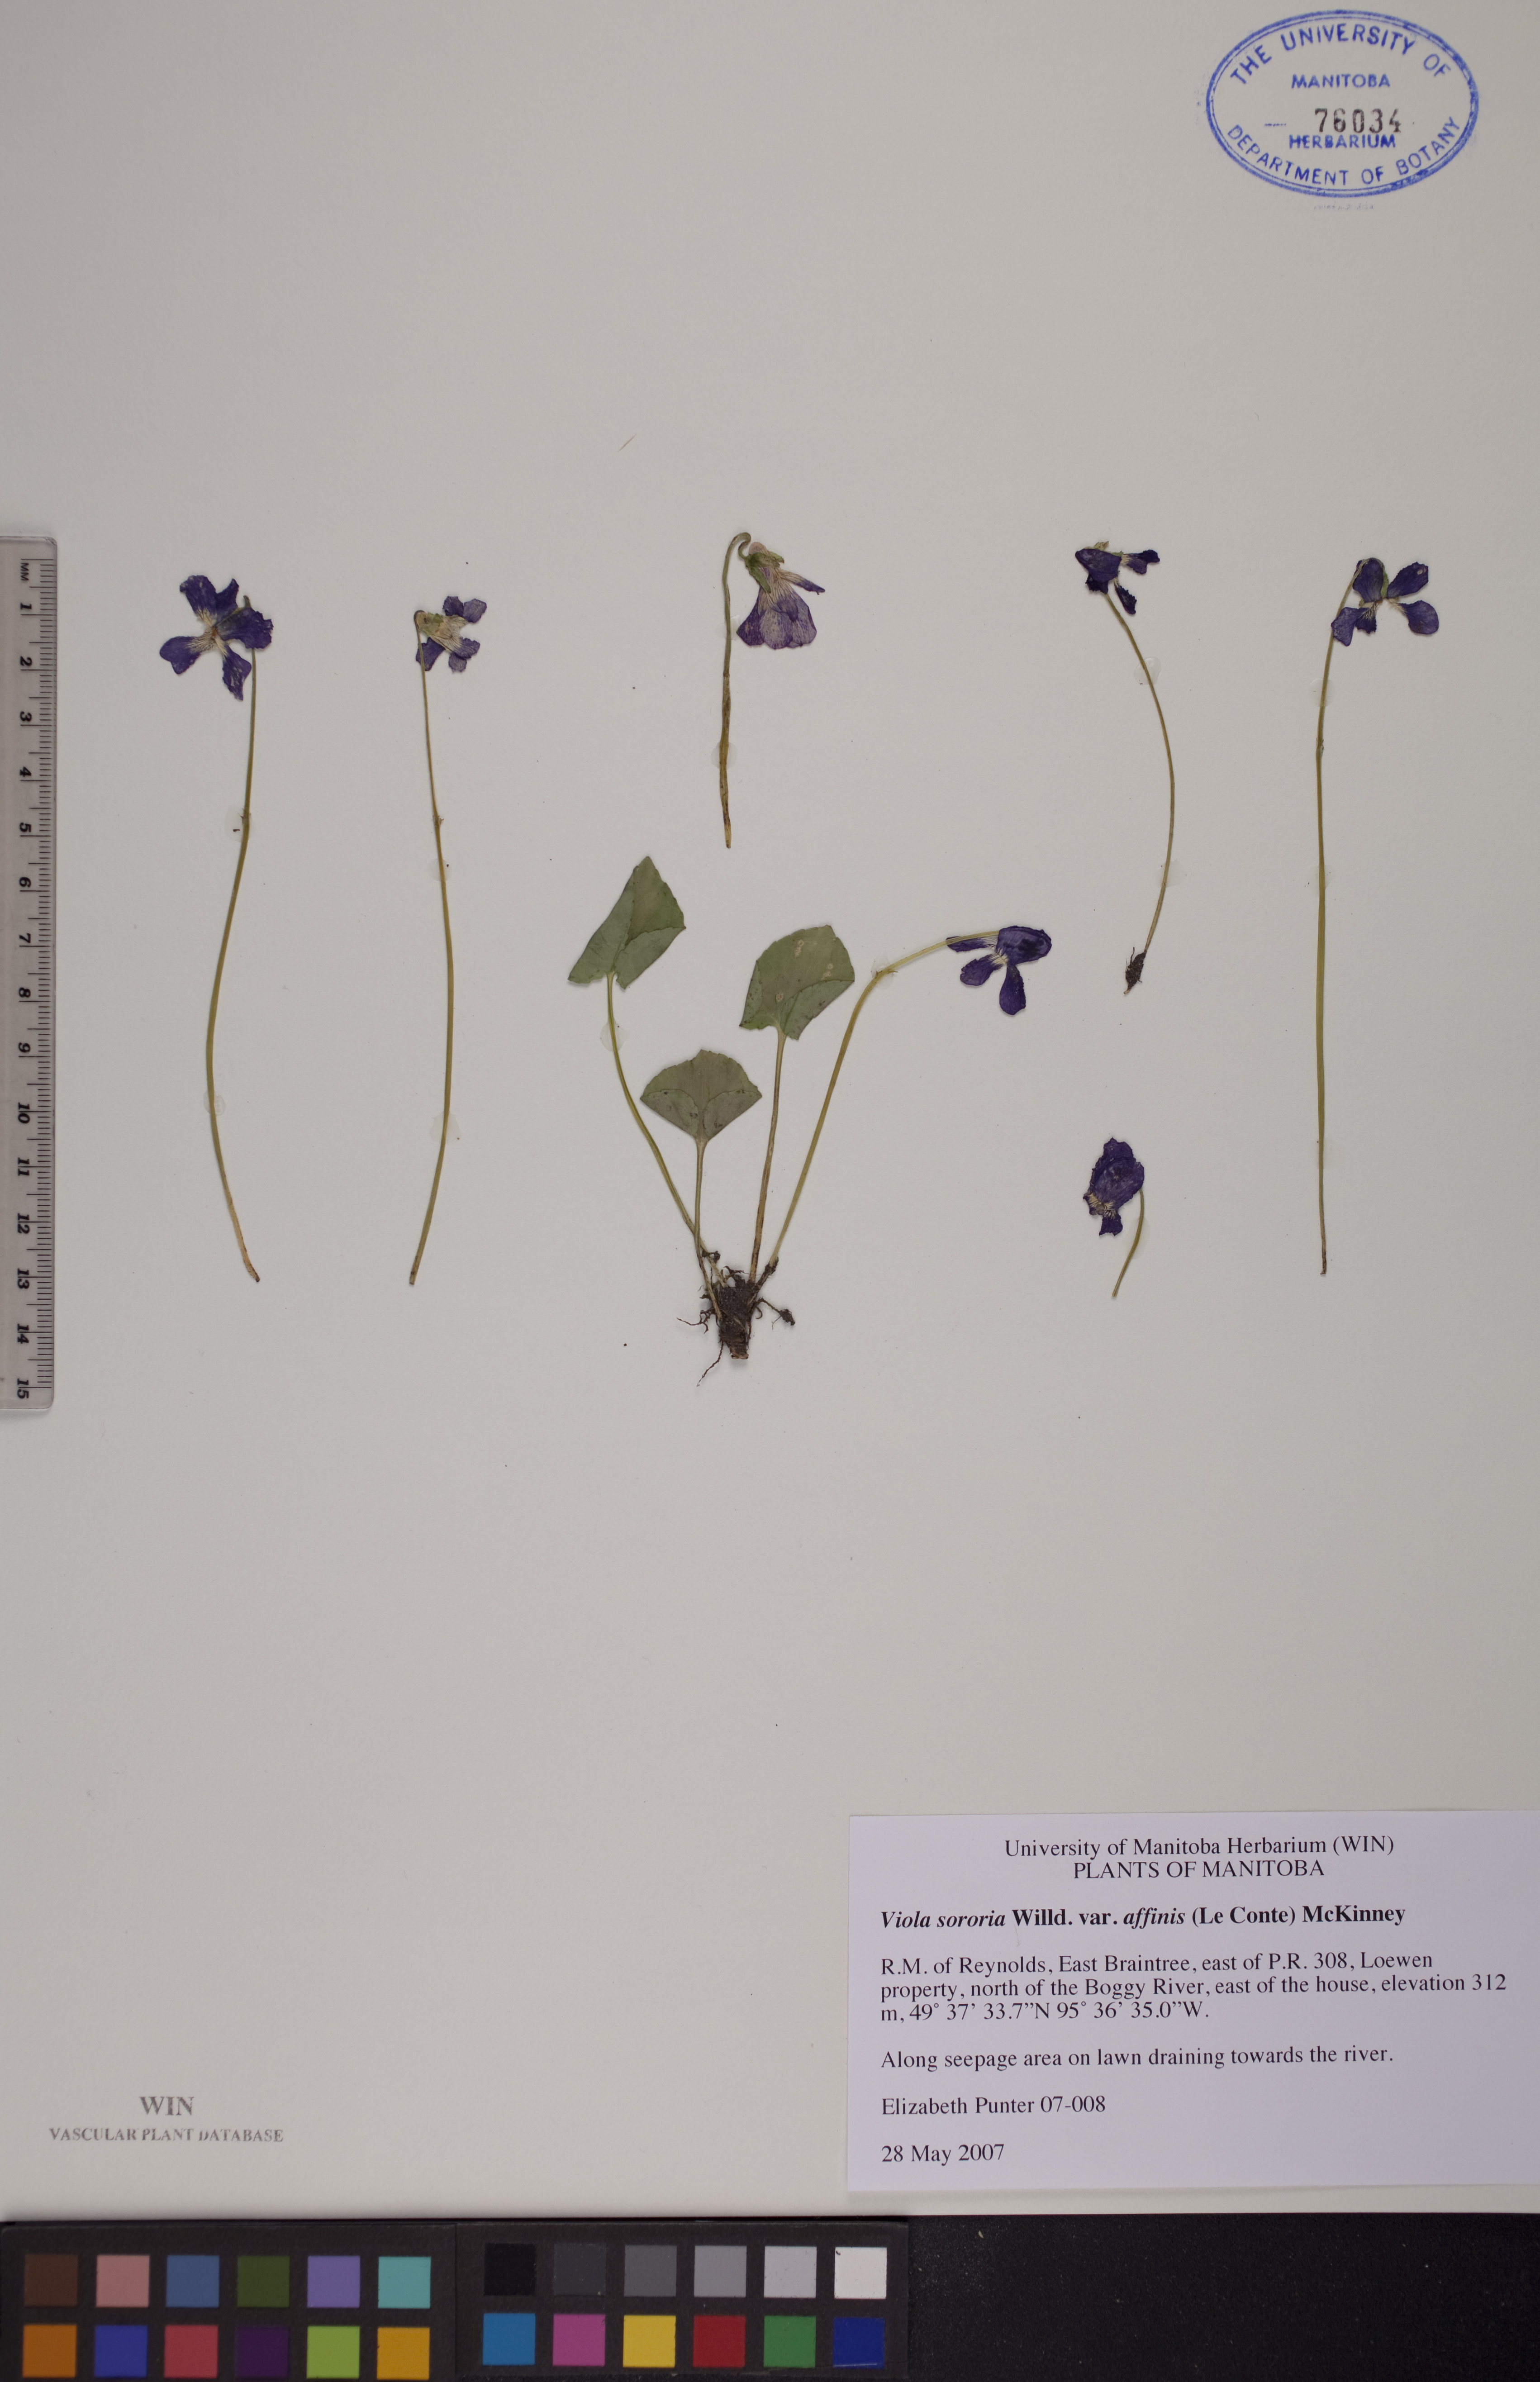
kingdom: Plantae
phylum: Tracheophyta
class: Magnoliopsida
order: Malpighiales
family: Violaceae
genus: Viola
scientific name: Viola affinis
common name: Leconte's violet
